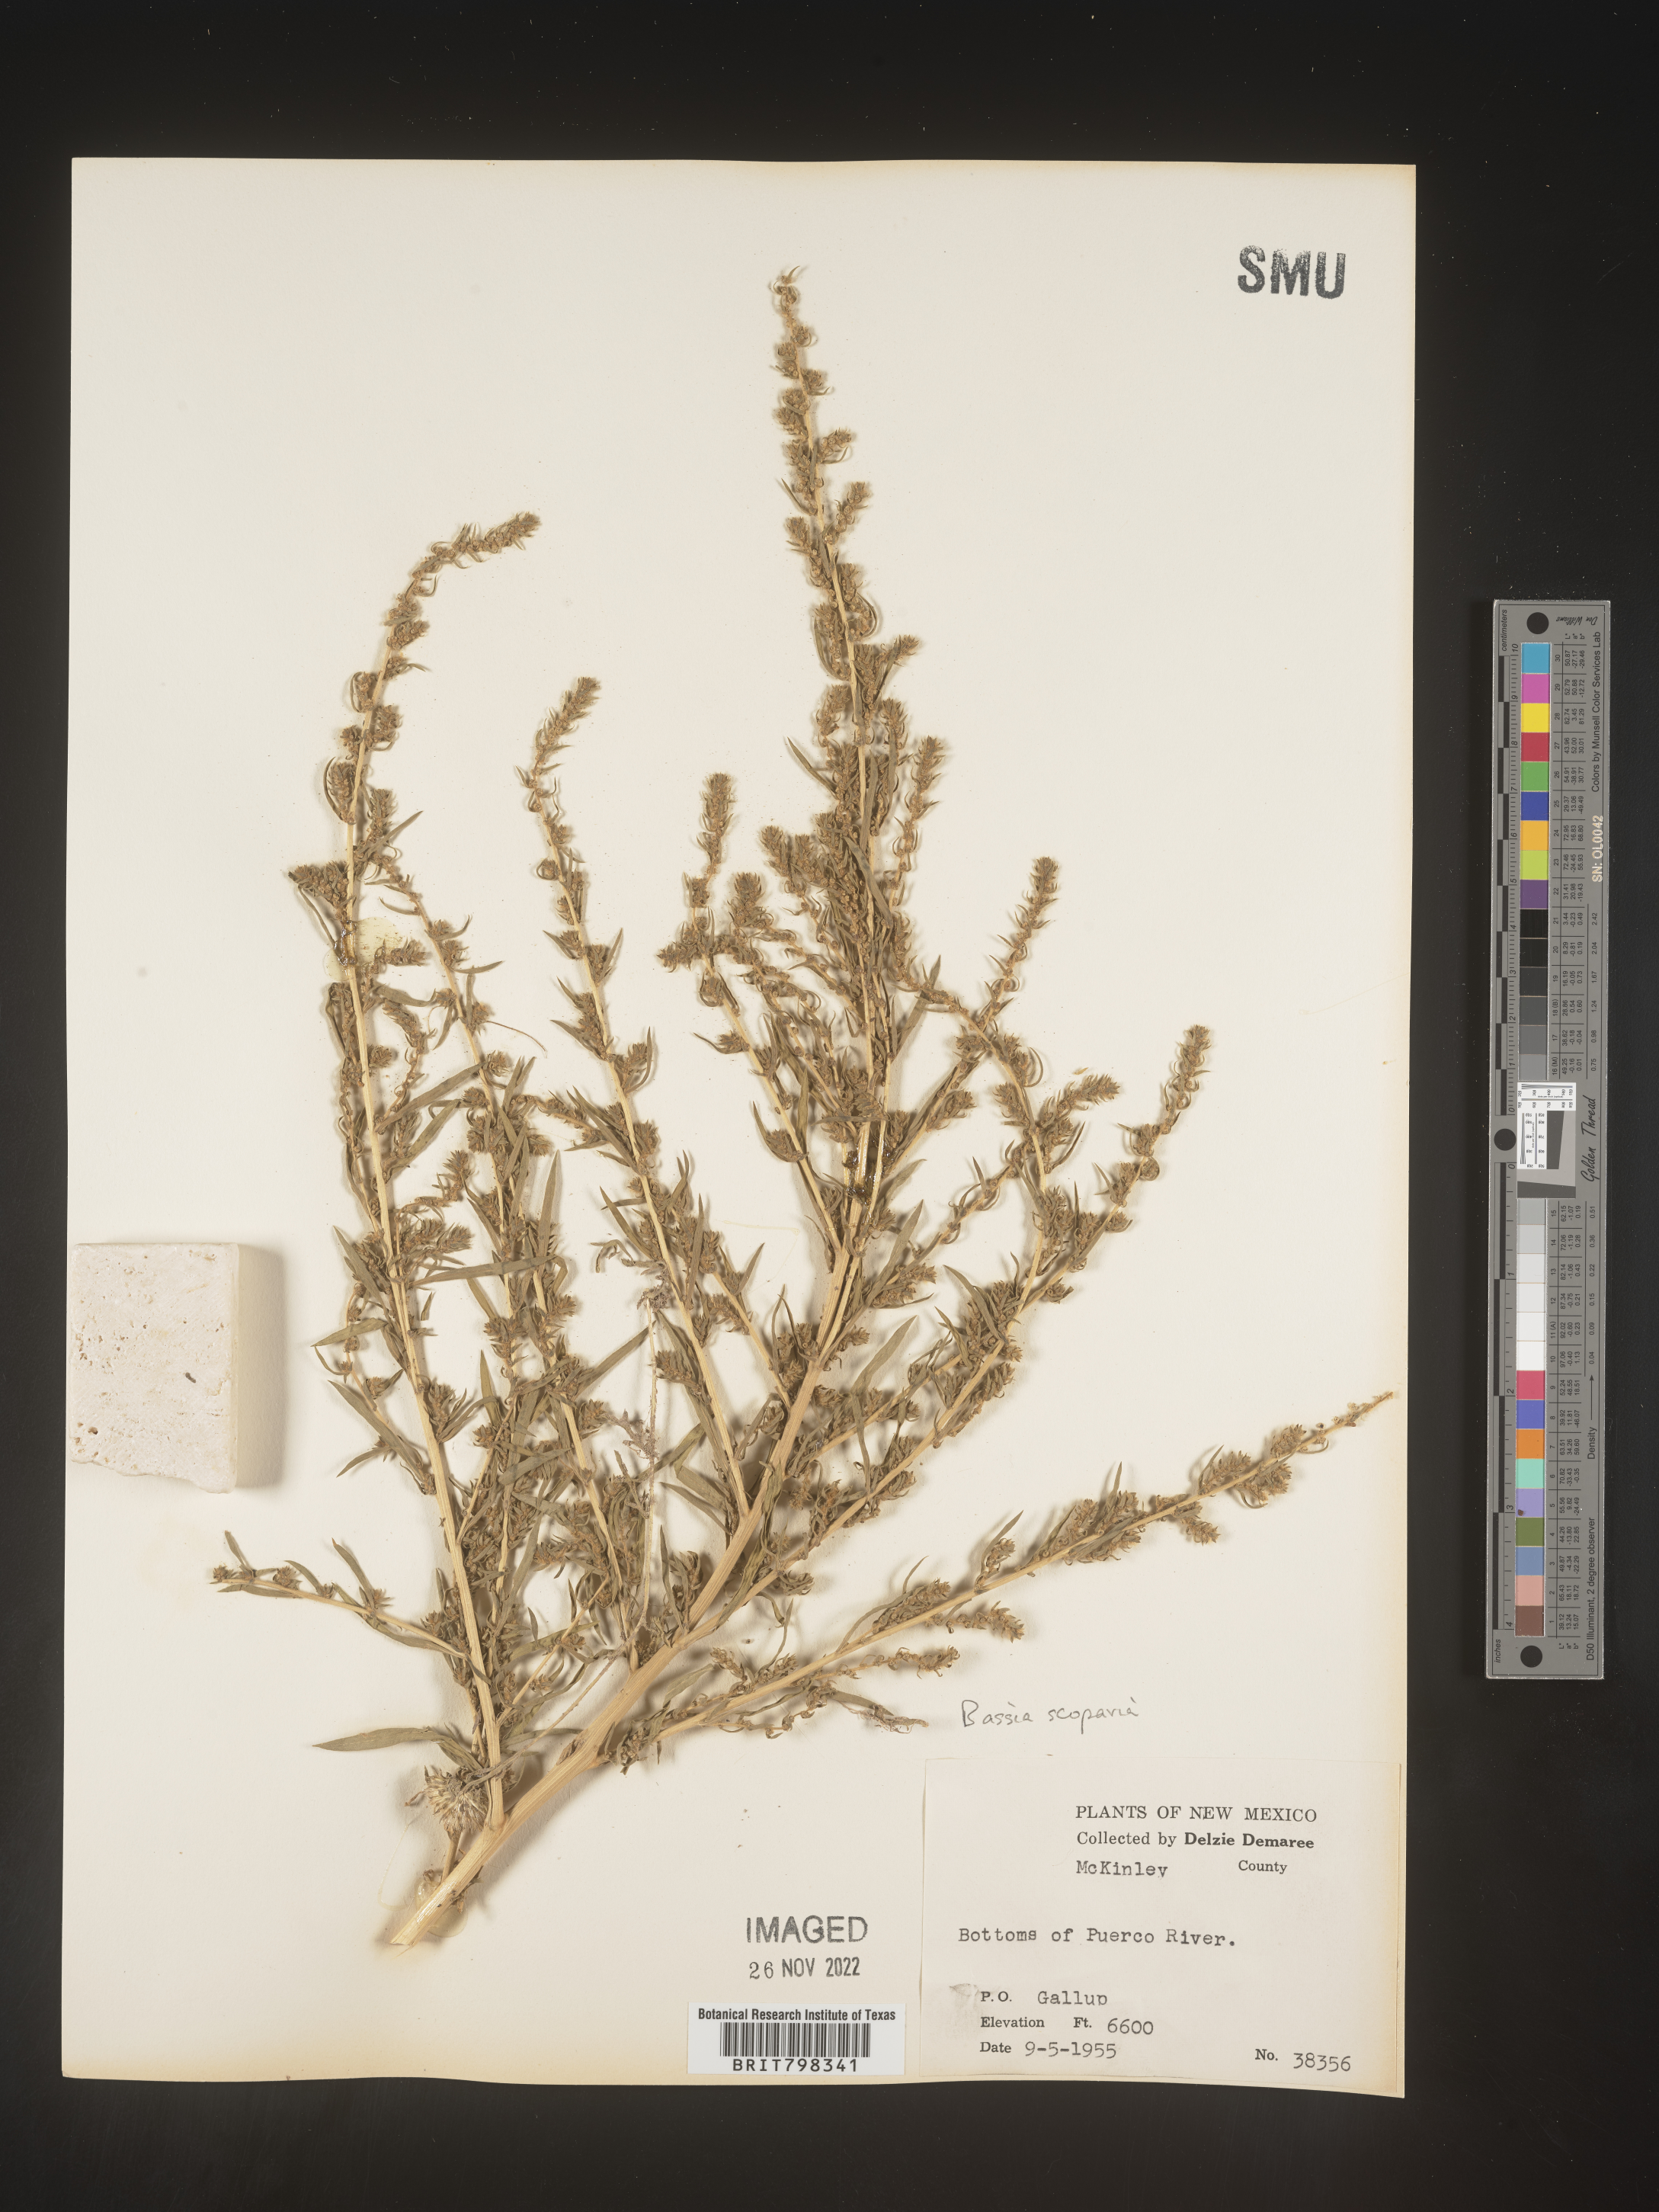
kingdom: Plantae
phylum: Tracheophyta
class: Magnoliopsida
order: Caryophyllales
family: Amaranthaceae
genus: Bassia
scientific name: Bassia
